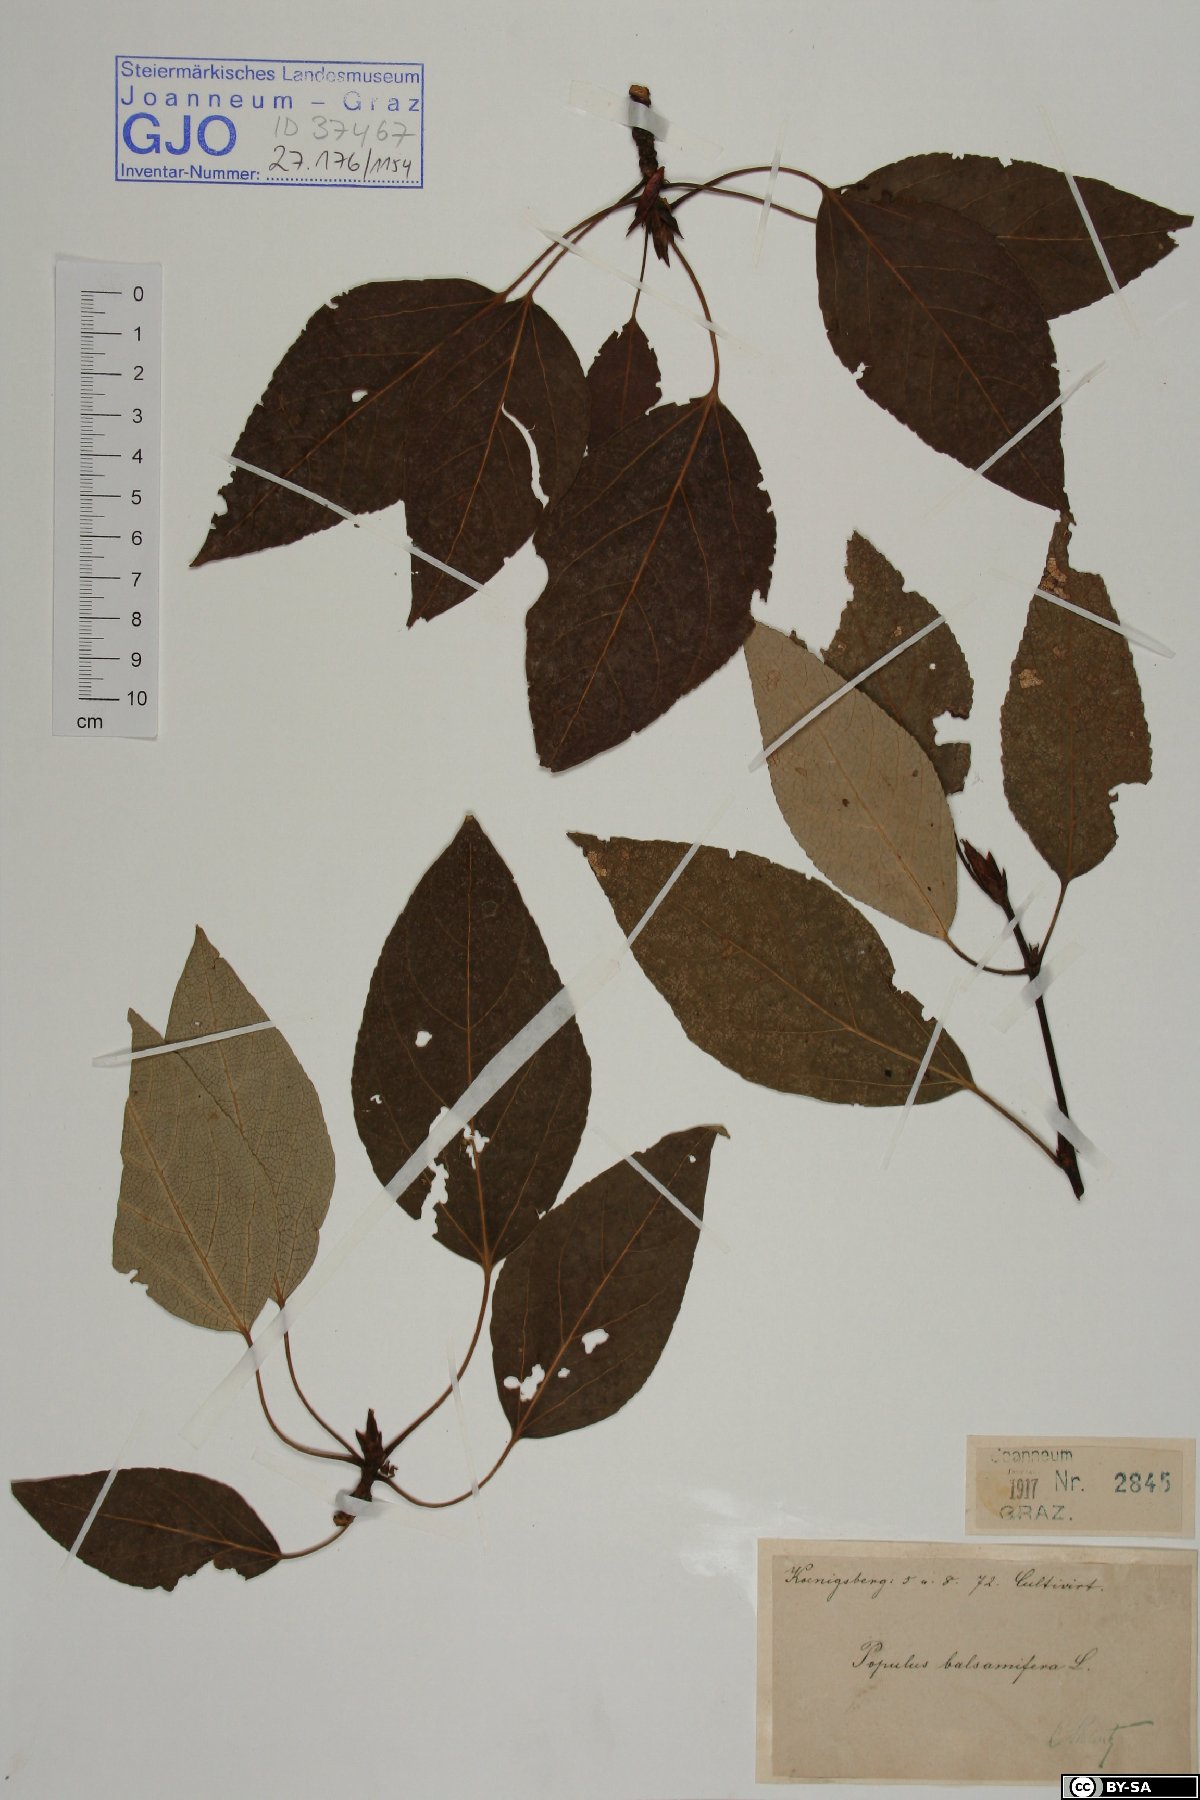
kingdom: Plantae
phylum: Tracheophyta
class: Magnoliopsida
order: Malpighiales
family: Salicaceae
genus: Populus
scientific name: Populus balsamifera
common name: Balsam poplar
